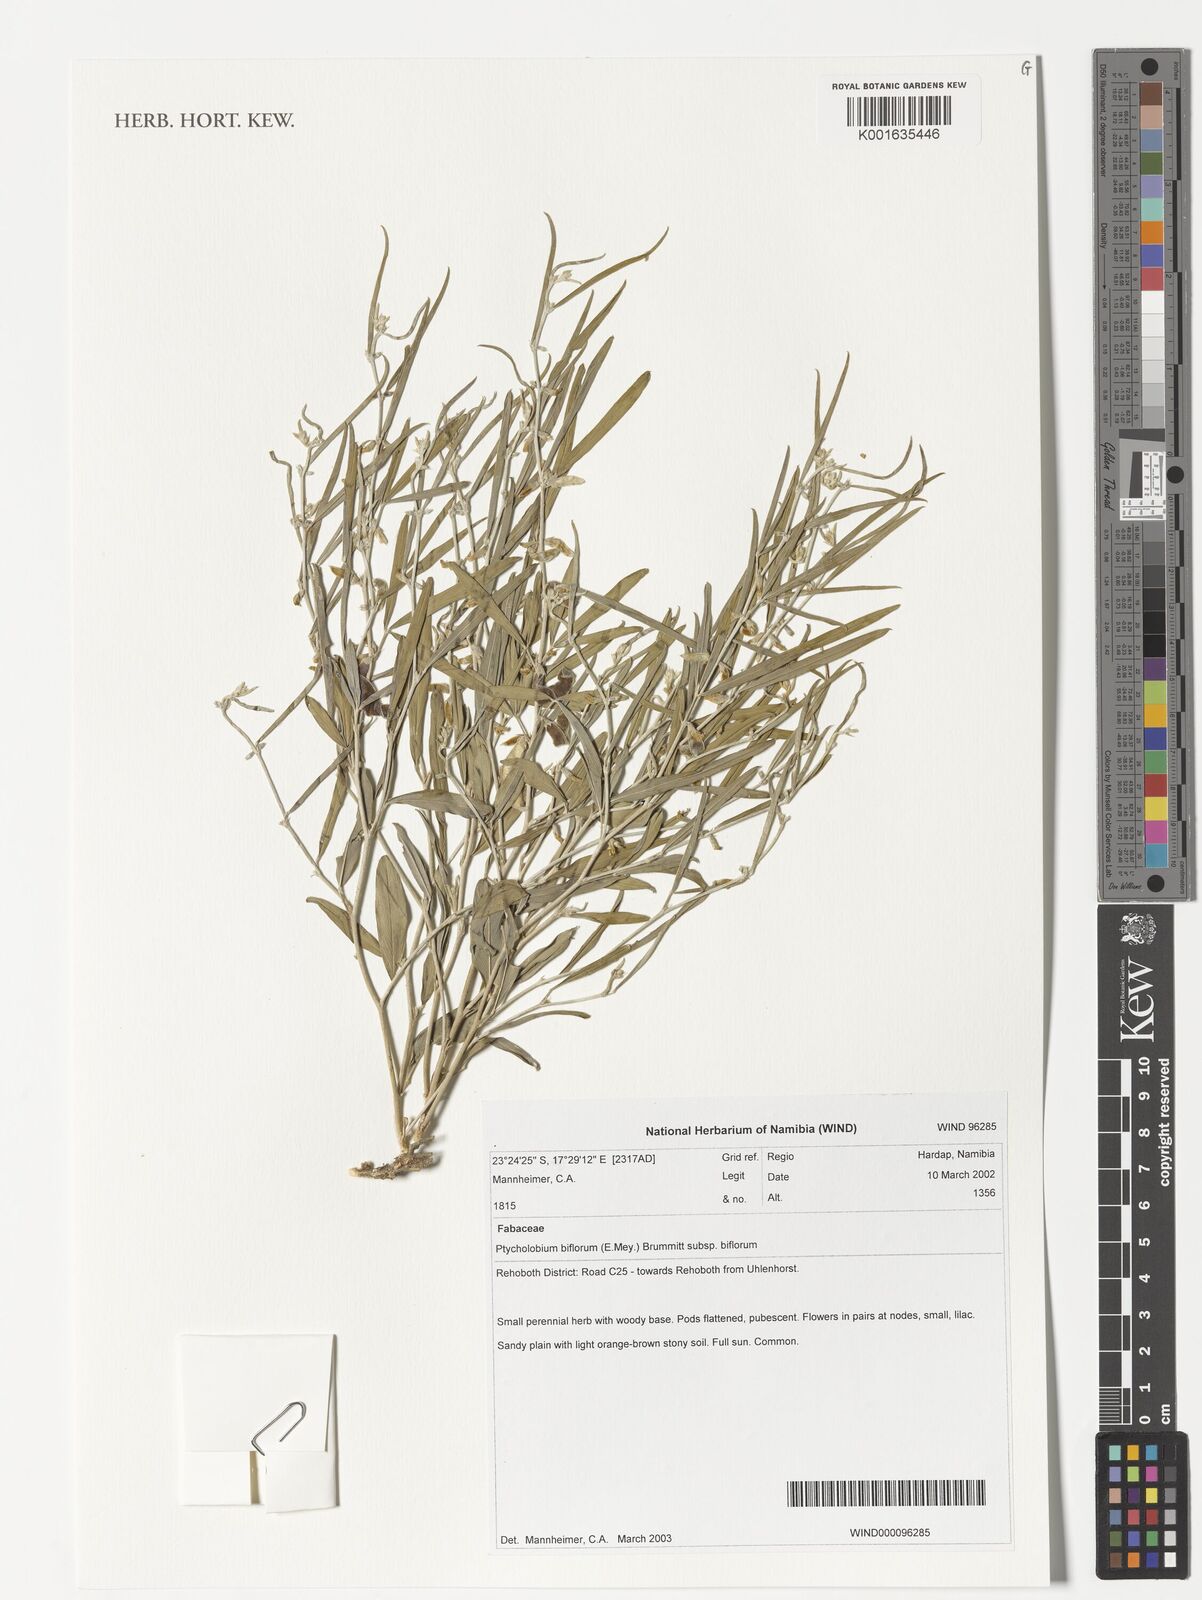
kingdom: Plantae
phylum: Tracheophyta
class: Magnoliopsida
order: Fabales
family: Fabaceae
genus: Ptycholobium
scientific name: Ptycholobium biflorum
